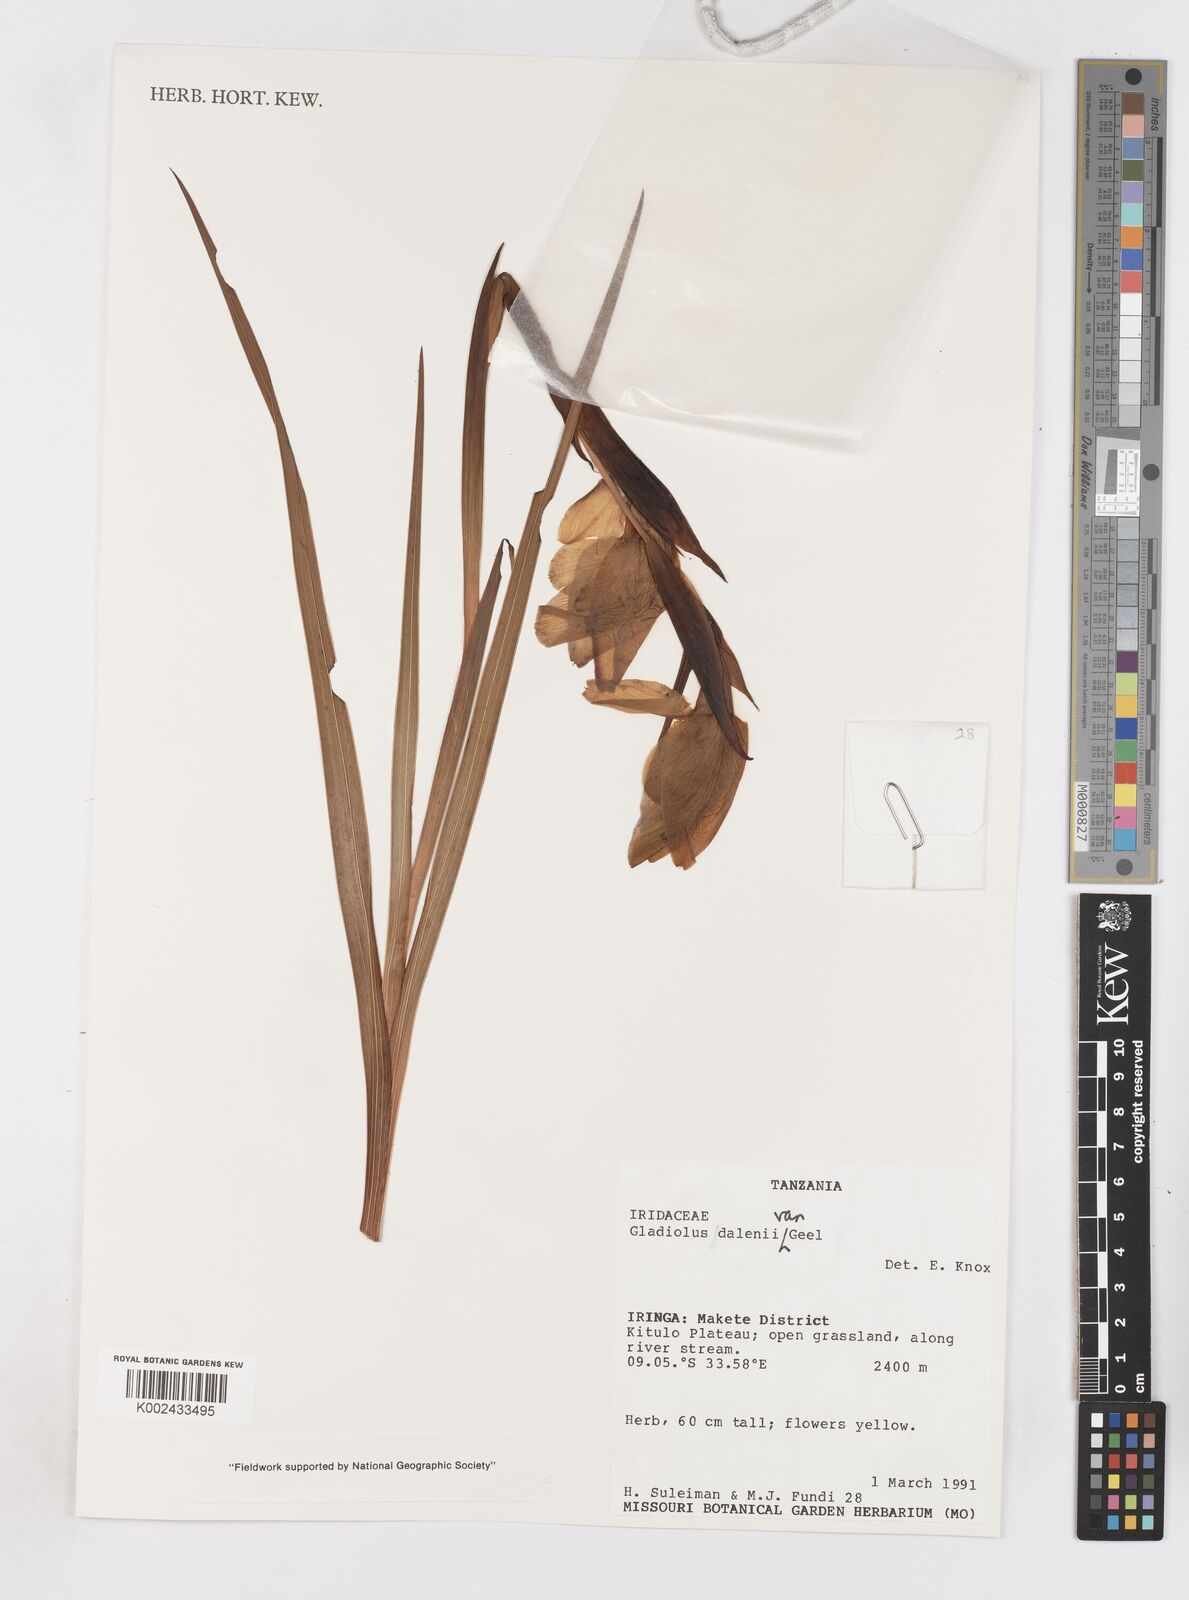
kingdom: Plantae
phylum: Tracheophyta
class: Liliopsida
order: Asparagales
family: Iridaceae
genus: Gladiolus
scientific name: Gladiolus dalenii
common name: Cornflag
